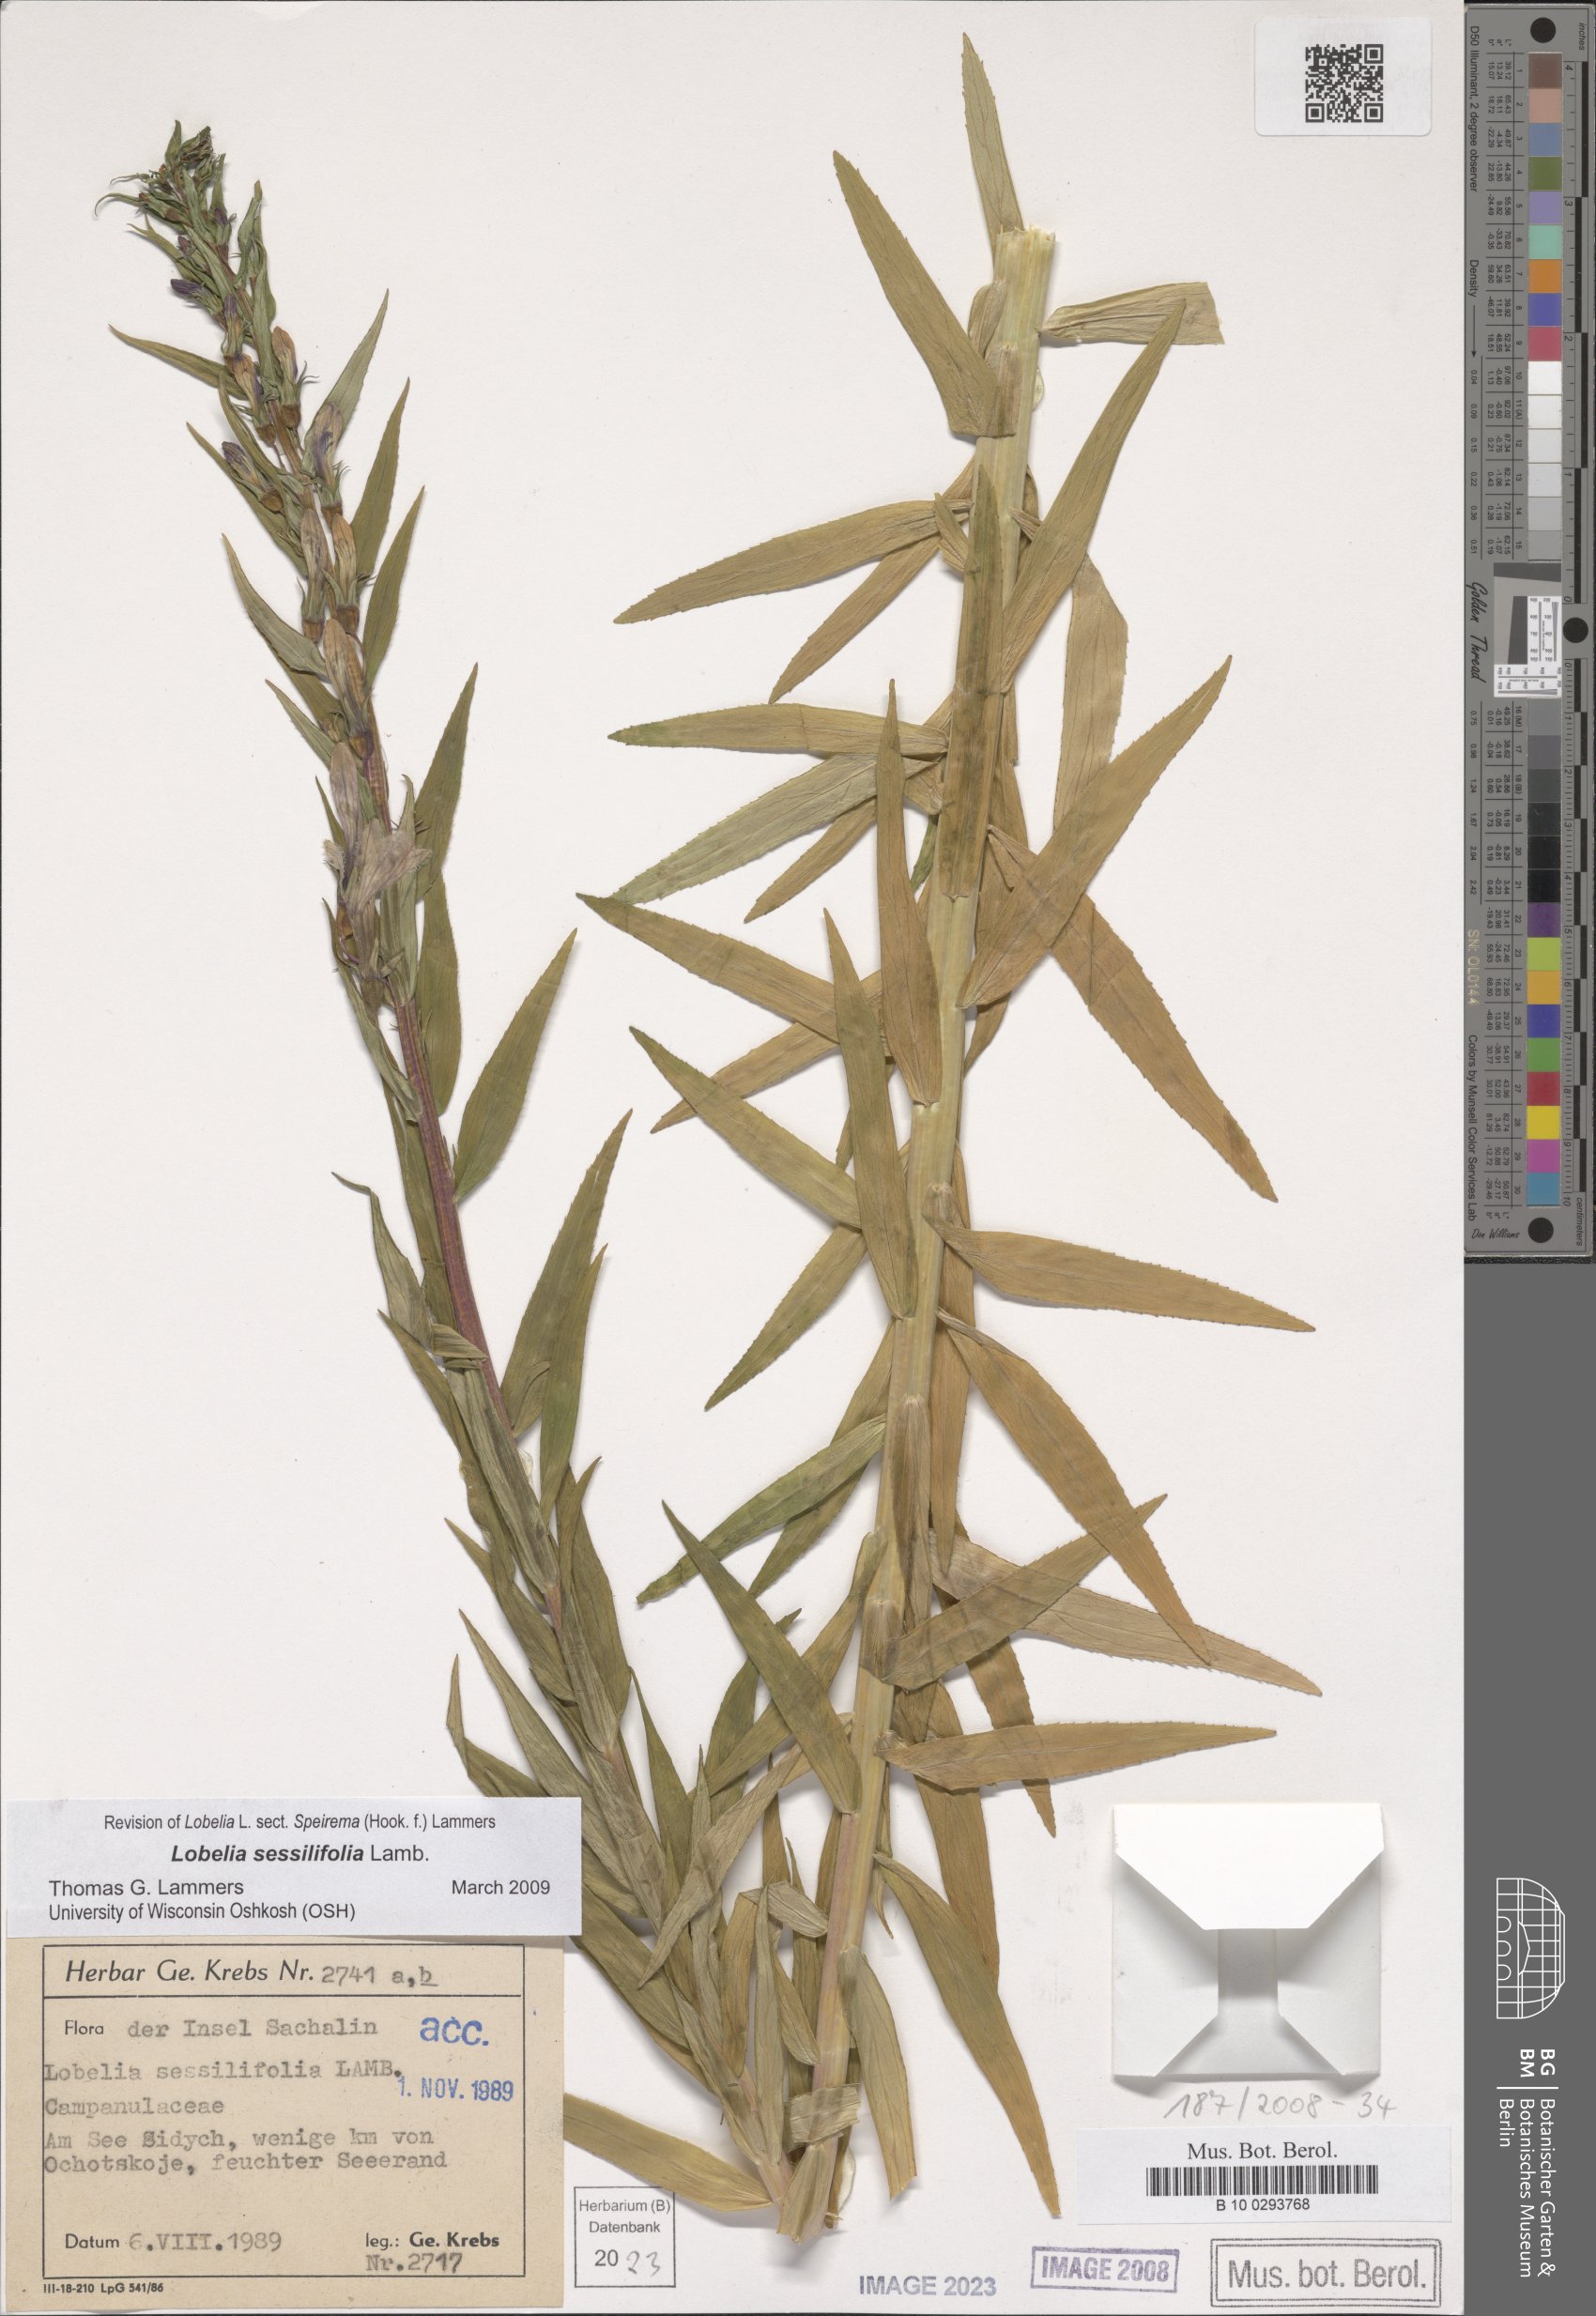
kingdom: Plantae
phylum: Tracheophyta
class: Magnoliopsida
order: Asterales
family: Campanulaceae
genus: Lobelia
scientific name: Lobelia sessilifolia
